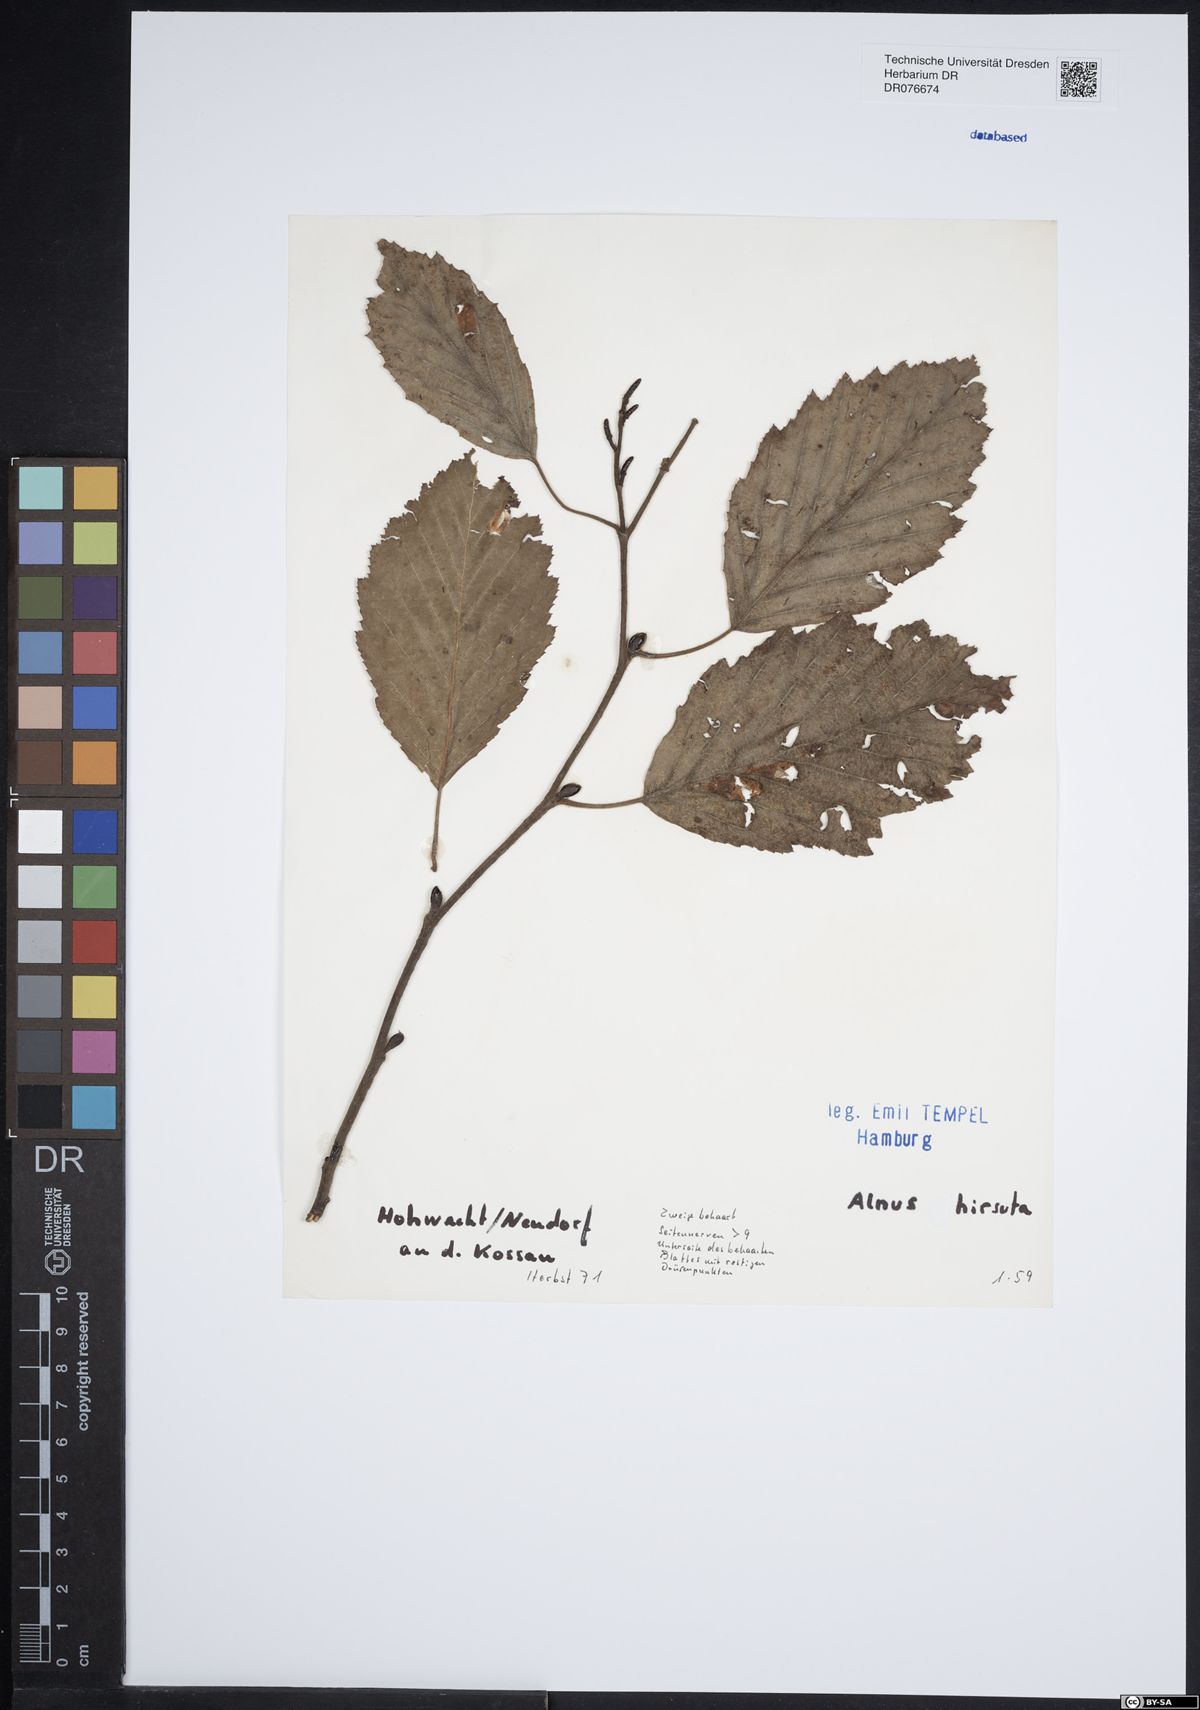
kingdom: Plantae
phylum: Tracheophyta
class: Magnoliopsida
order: Fagales
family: Betulaceae
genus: Alnus
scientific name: Alnus hirsuta
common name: Manchurian alder
